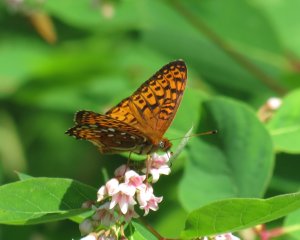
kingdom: Animalia
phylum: Arthropoda
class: Insecta
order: Lepidoptera
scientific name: Lepidoptera
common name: Butterflies
